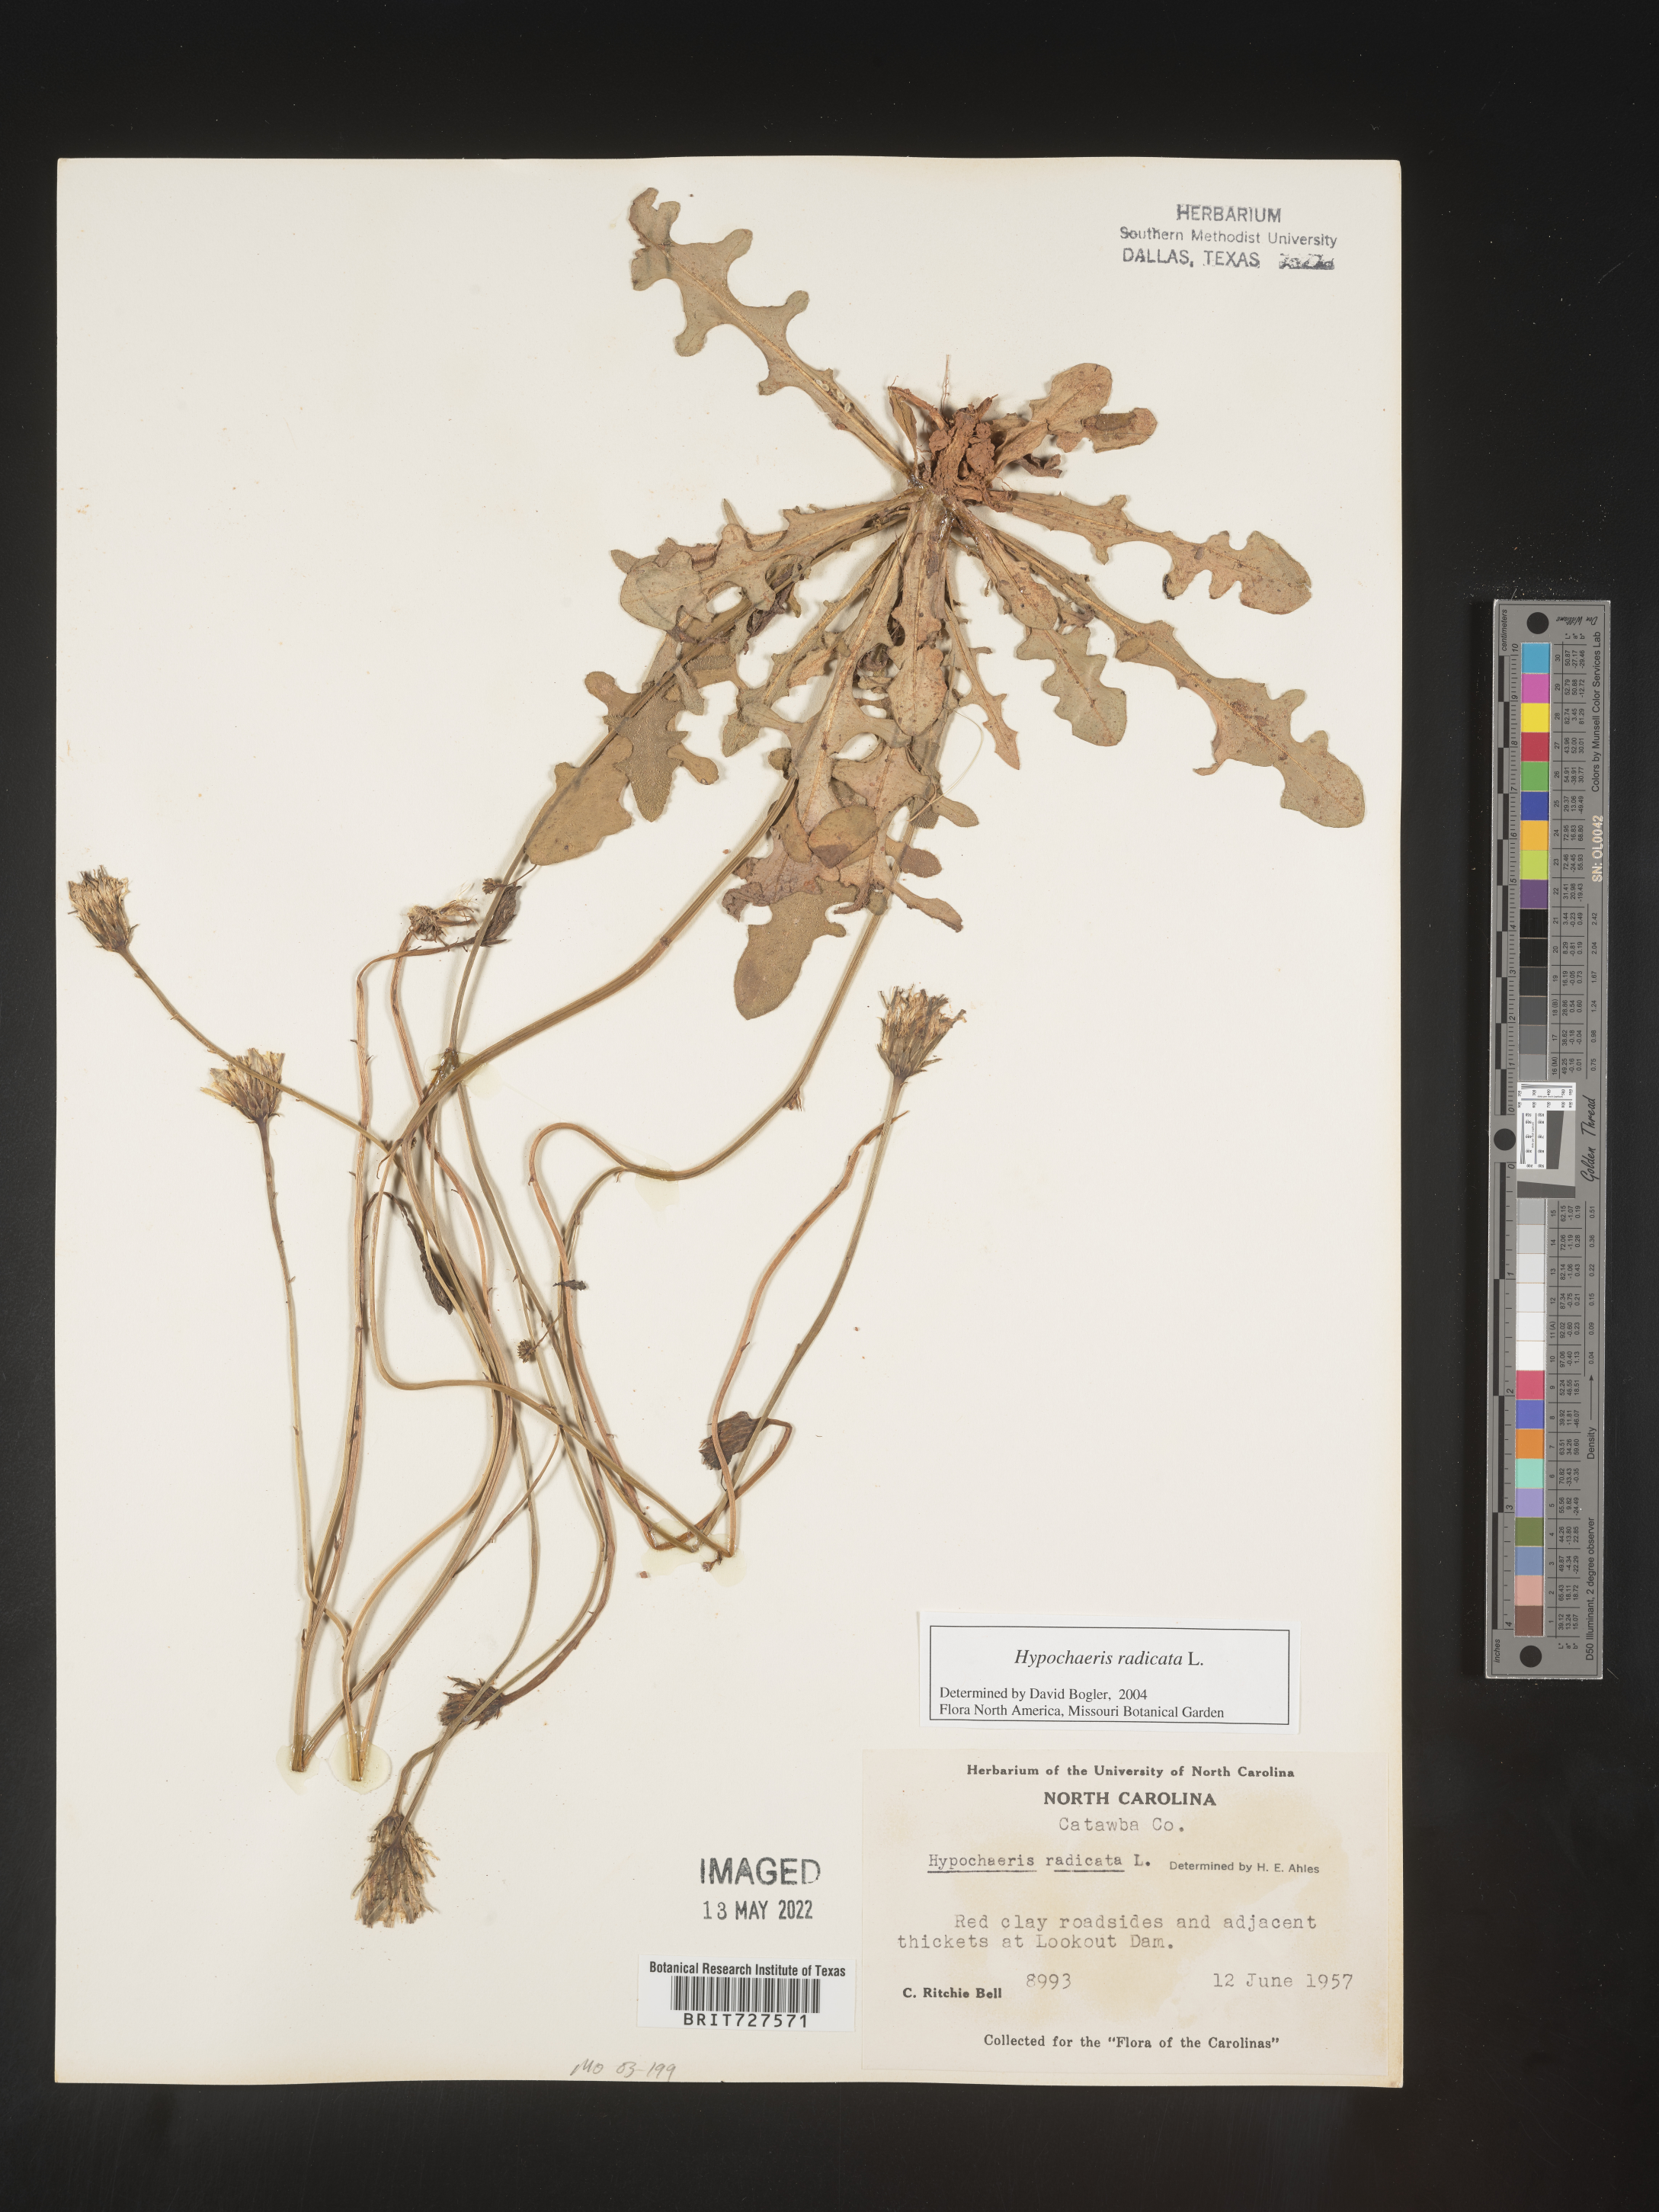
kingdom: Plantae
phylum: Tracheophyta
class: Magnoliopsida
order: Asterales
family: Asteraceae
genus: Hypochaeris
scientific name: Hypochaeris radicata
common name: Flatweed
